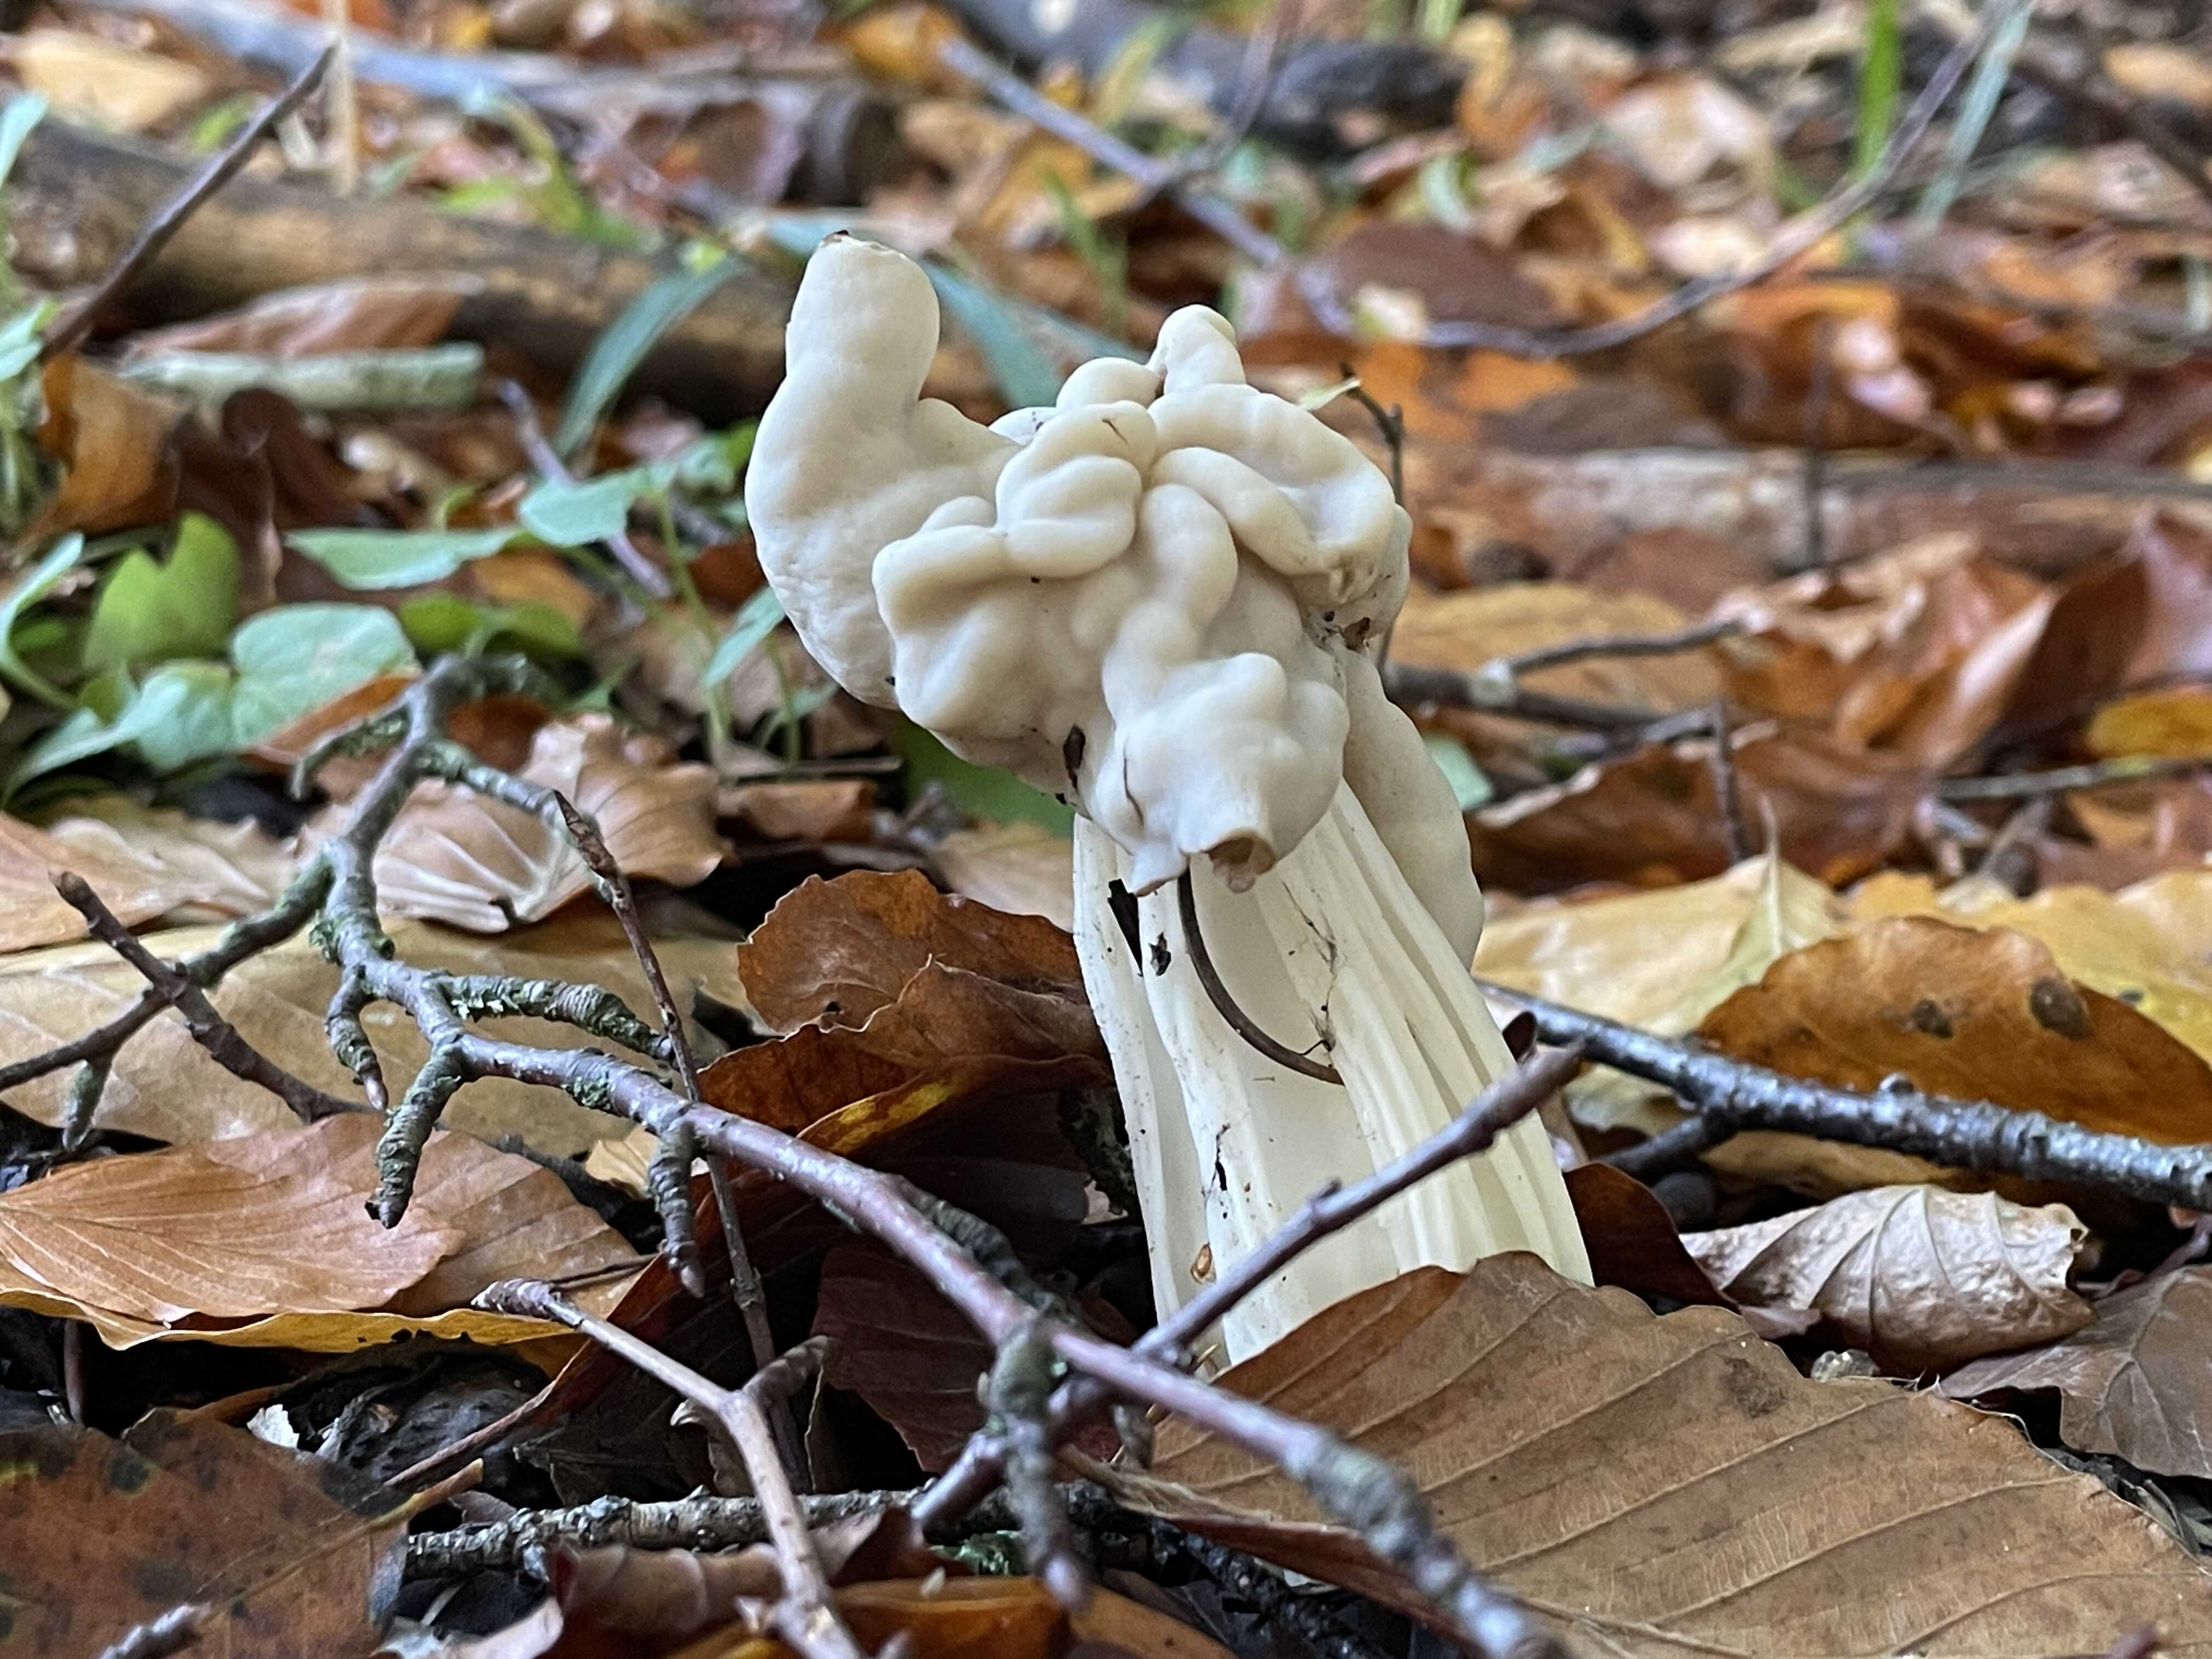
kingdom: Fungi
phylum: Ascomycota
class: Pezizomycetes
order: Pezizales
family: Helvellaceae
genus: Helvella
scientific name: Helvella crispa
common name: kruset foldhat
